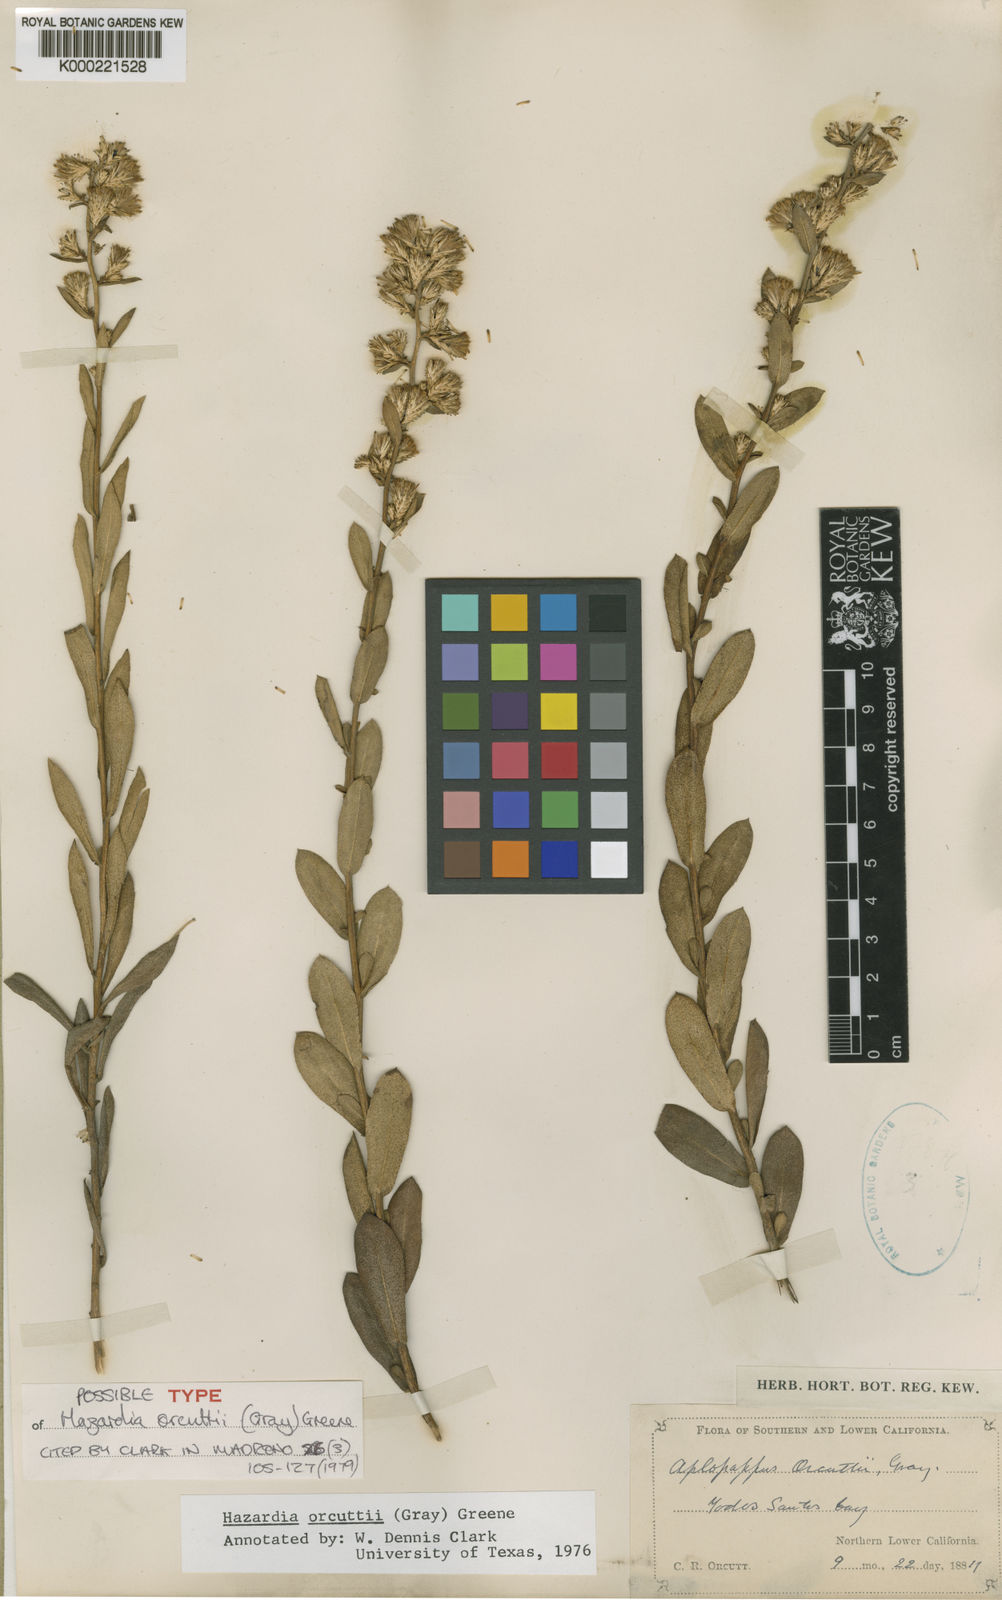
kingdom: Plantae
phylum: Tracheophyta
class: Magnoliopsida
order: Asterales
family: Asteraceae
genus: Hazardia
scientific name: Hazardia orcuttii
